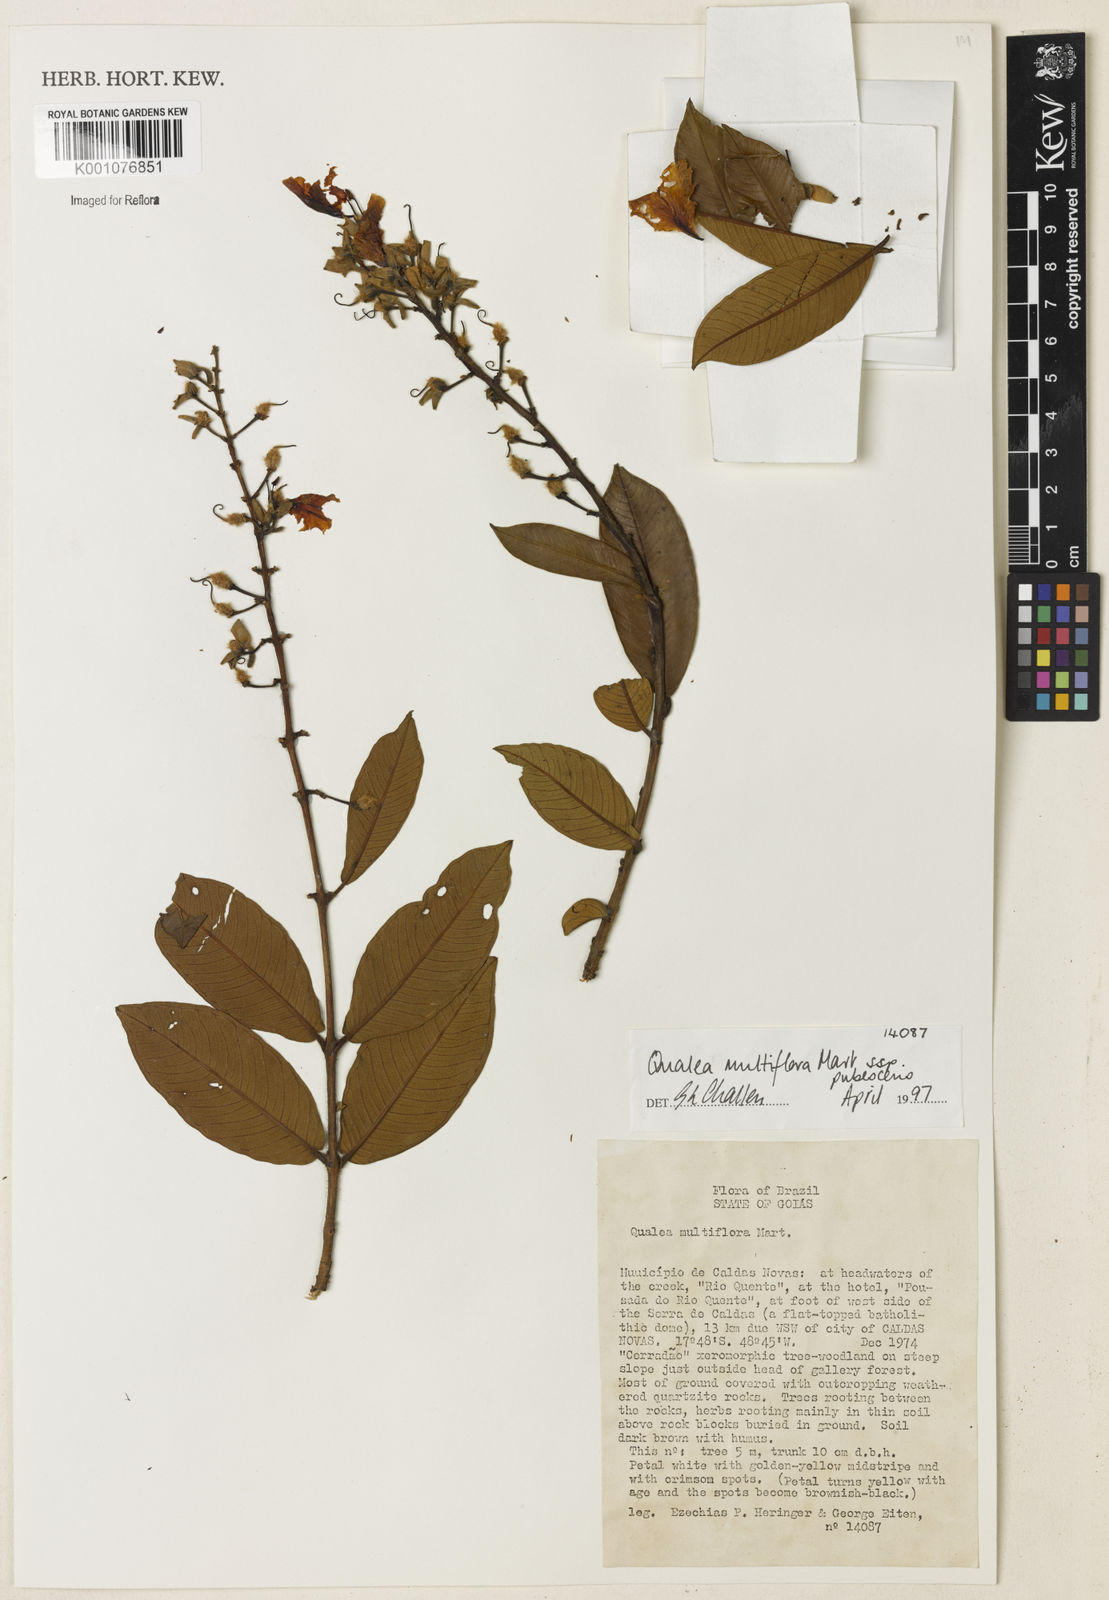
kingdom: Plantae
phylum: Tracheophyta
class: Magnoliopsida
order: Myrtales
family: Vochysiaceae
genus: Qualea
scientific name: Qualea multiflora
